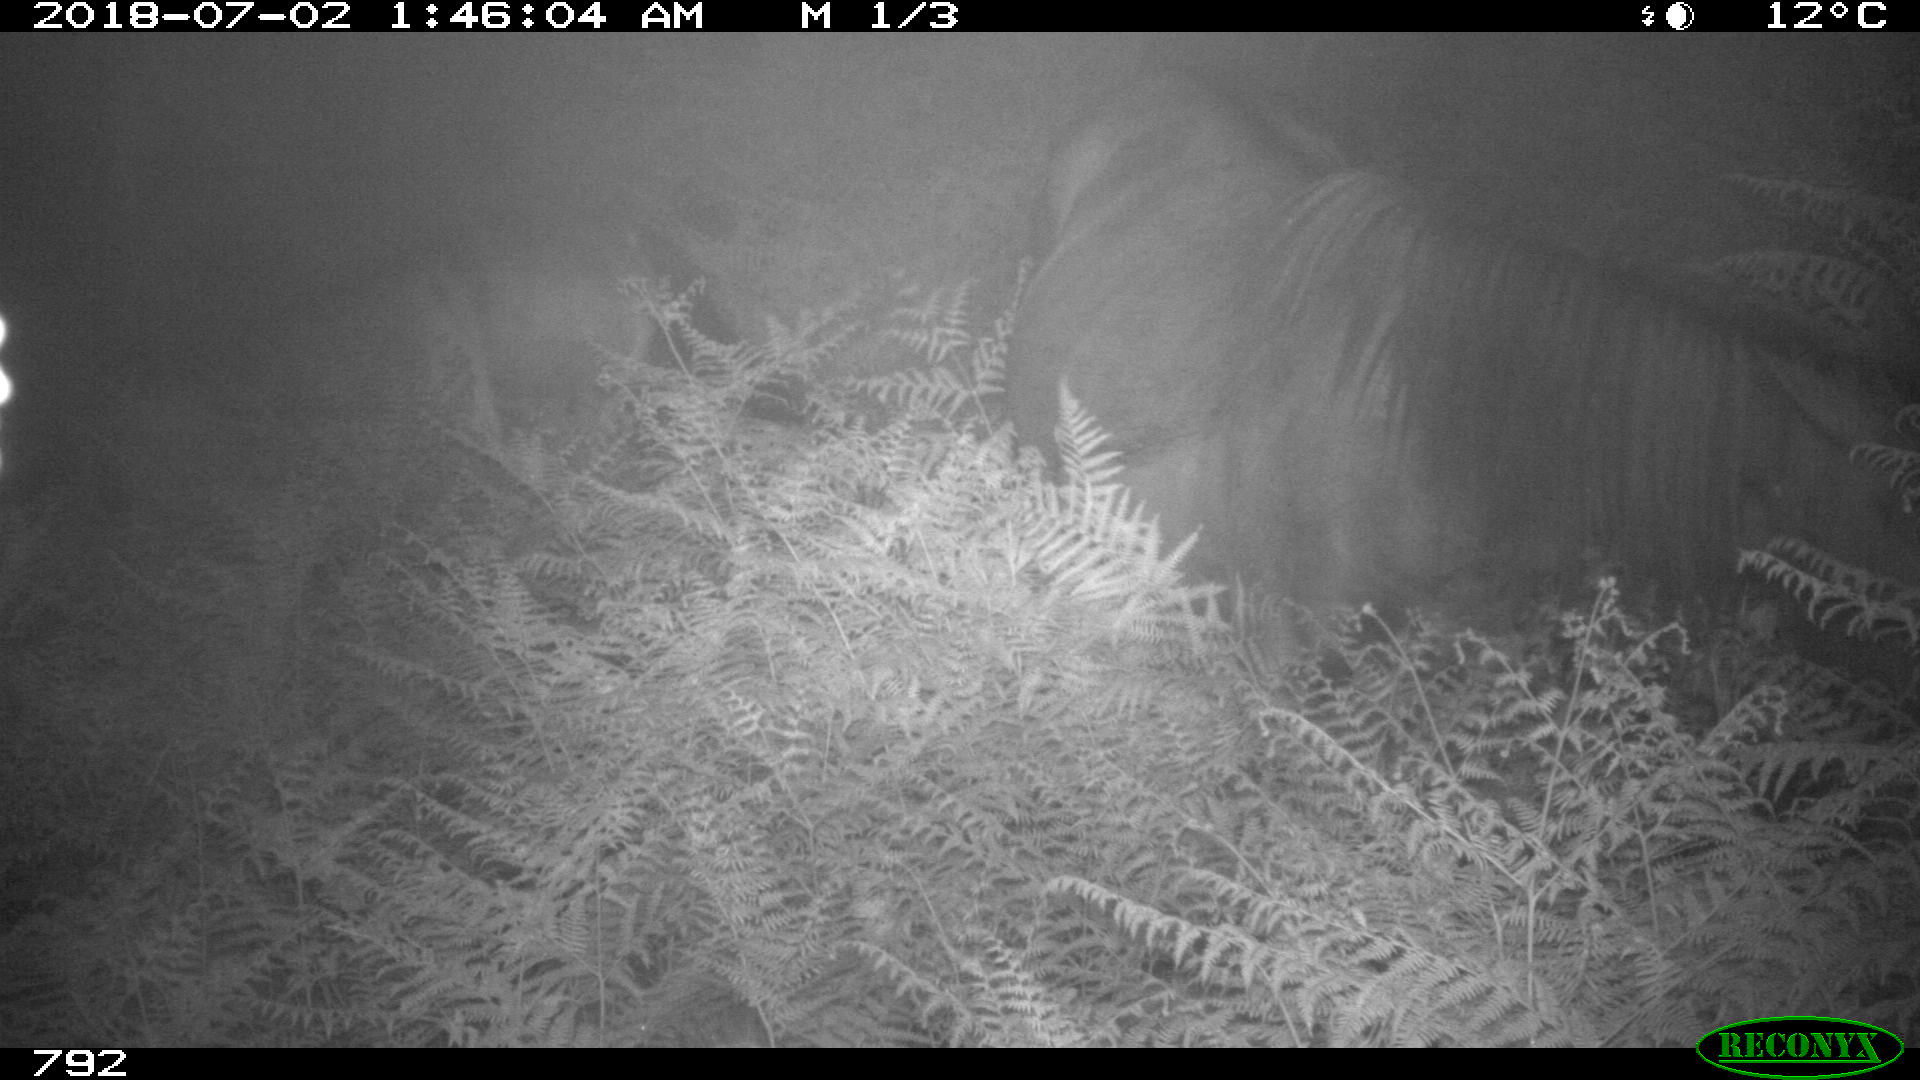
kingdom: Animalia
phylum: Chordata
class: Mammalia
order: Perissodactyla
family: Equidae
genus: Equus
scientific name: Equus caballus
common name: Horse
